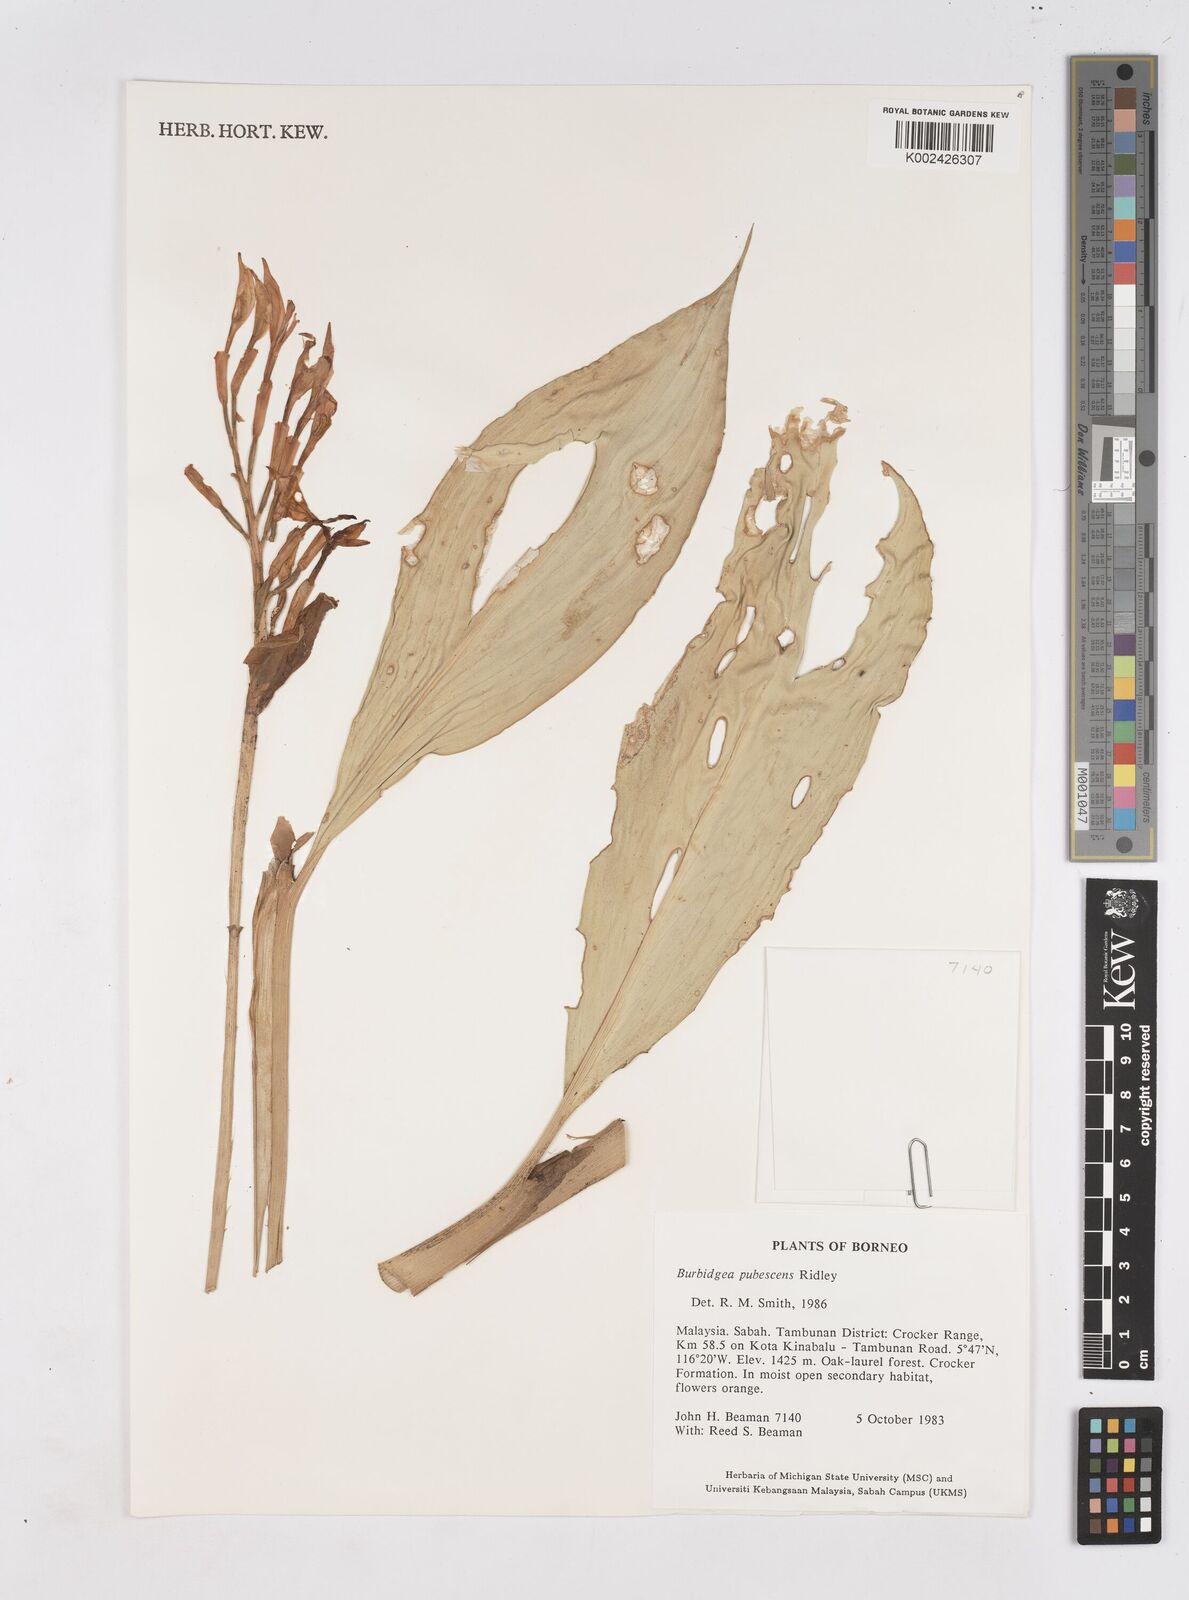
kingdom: Plantae
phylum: Tracheophyta
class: Liliopsida
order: Zingiberales
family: Zingiberaceae
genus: Burbidgea
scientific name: Burbidgea schizocheila
